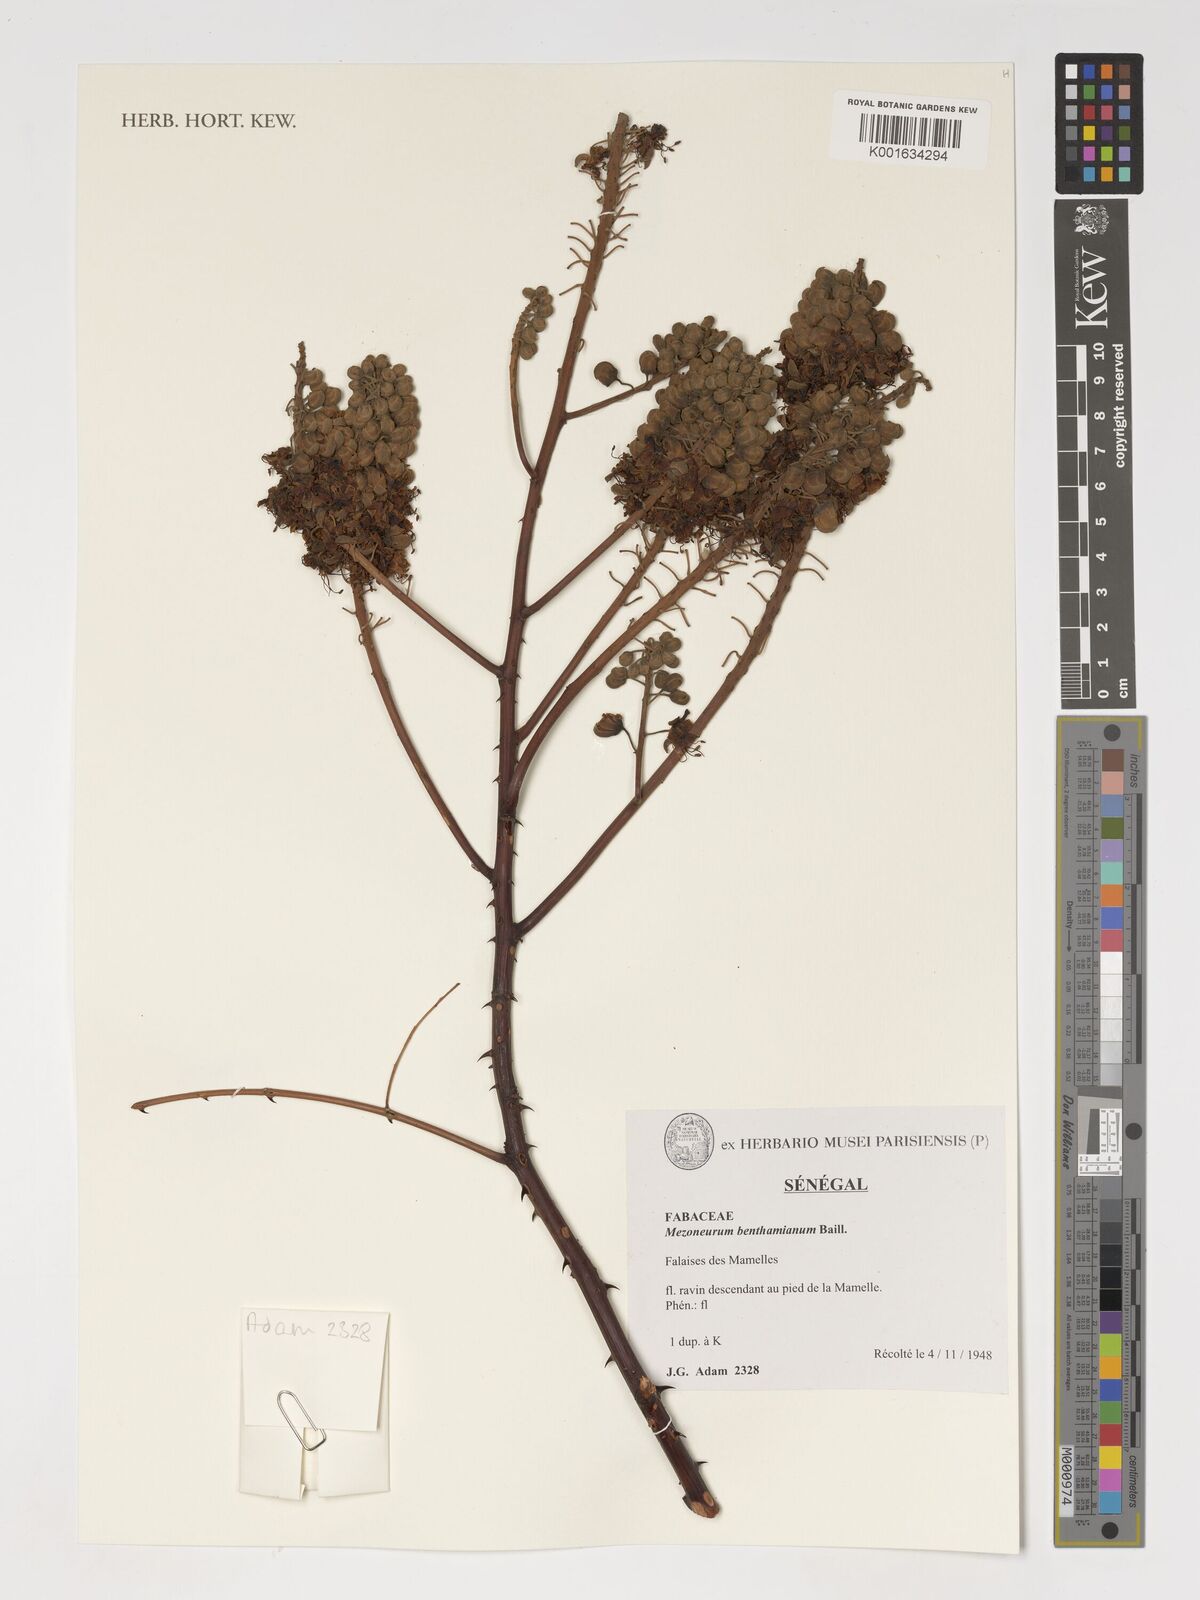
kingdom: Plantae
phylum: Tracheophyta
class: Magnoliopsida
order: Fabales
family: Fabaceae
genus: Mezoneuron
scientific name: Mezoneuron benthamianum
